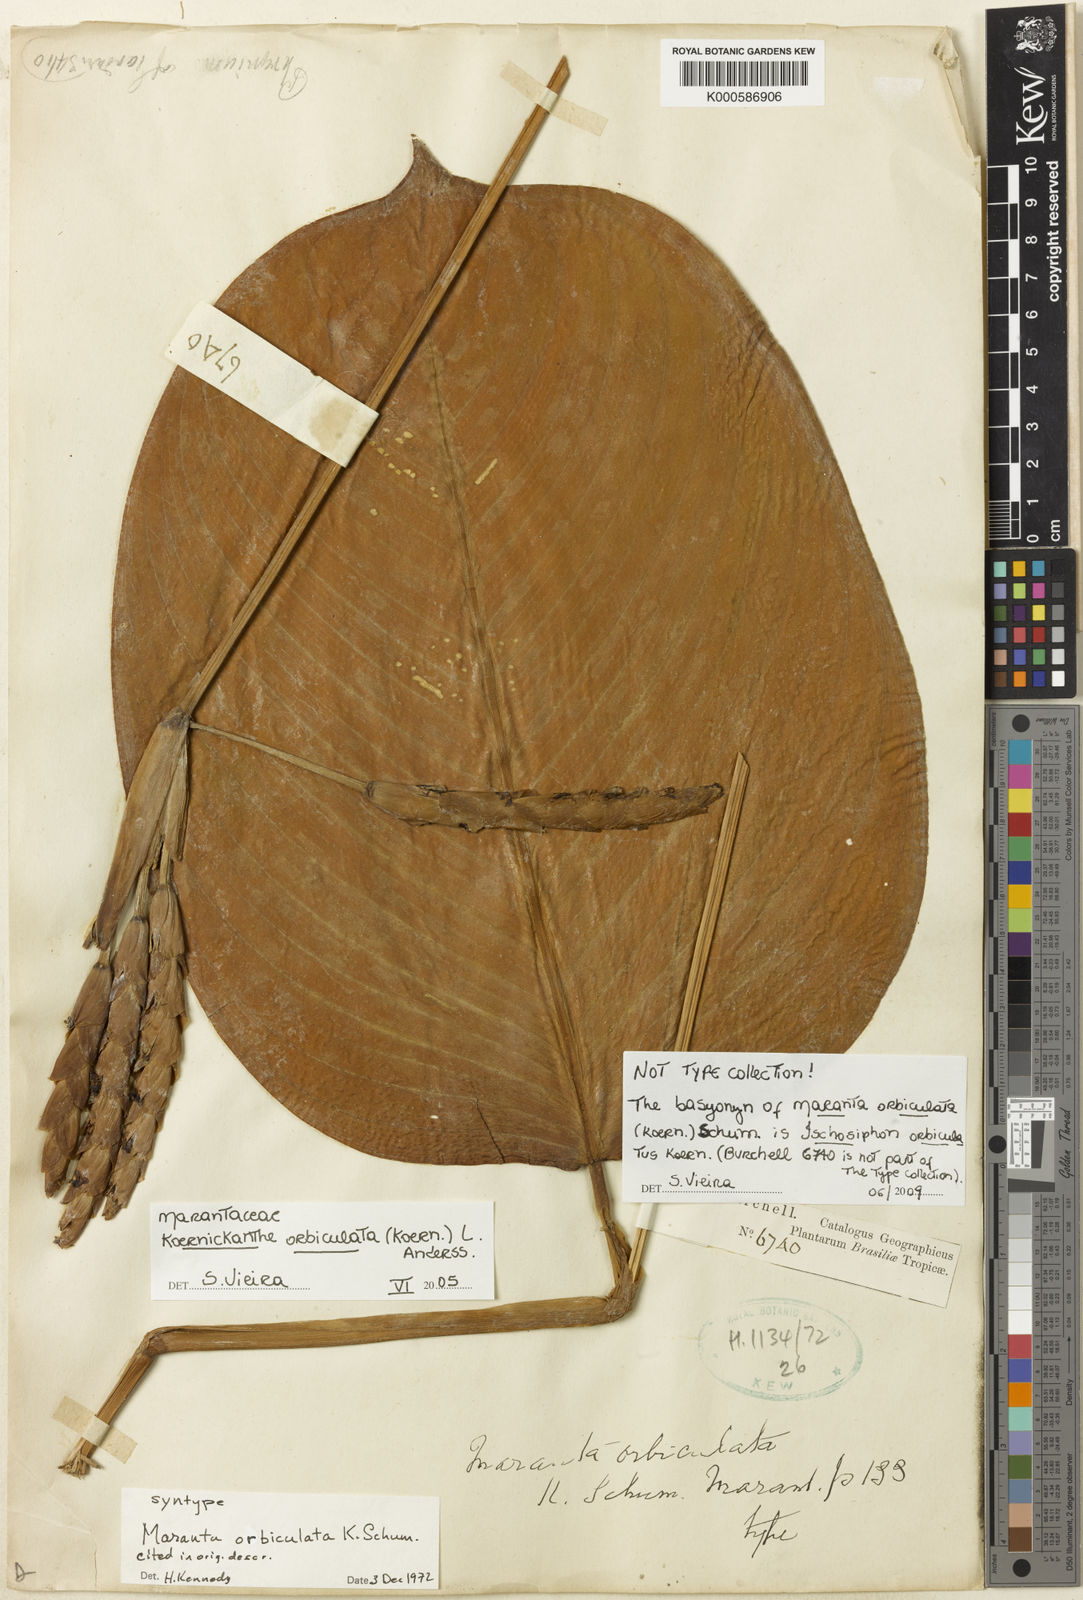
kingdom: Plantae
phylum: Tracheophyta
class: Liliopsida
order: Zingiberales
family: Marantaceae
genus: Koernickanthe
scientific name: Koernickanthe
